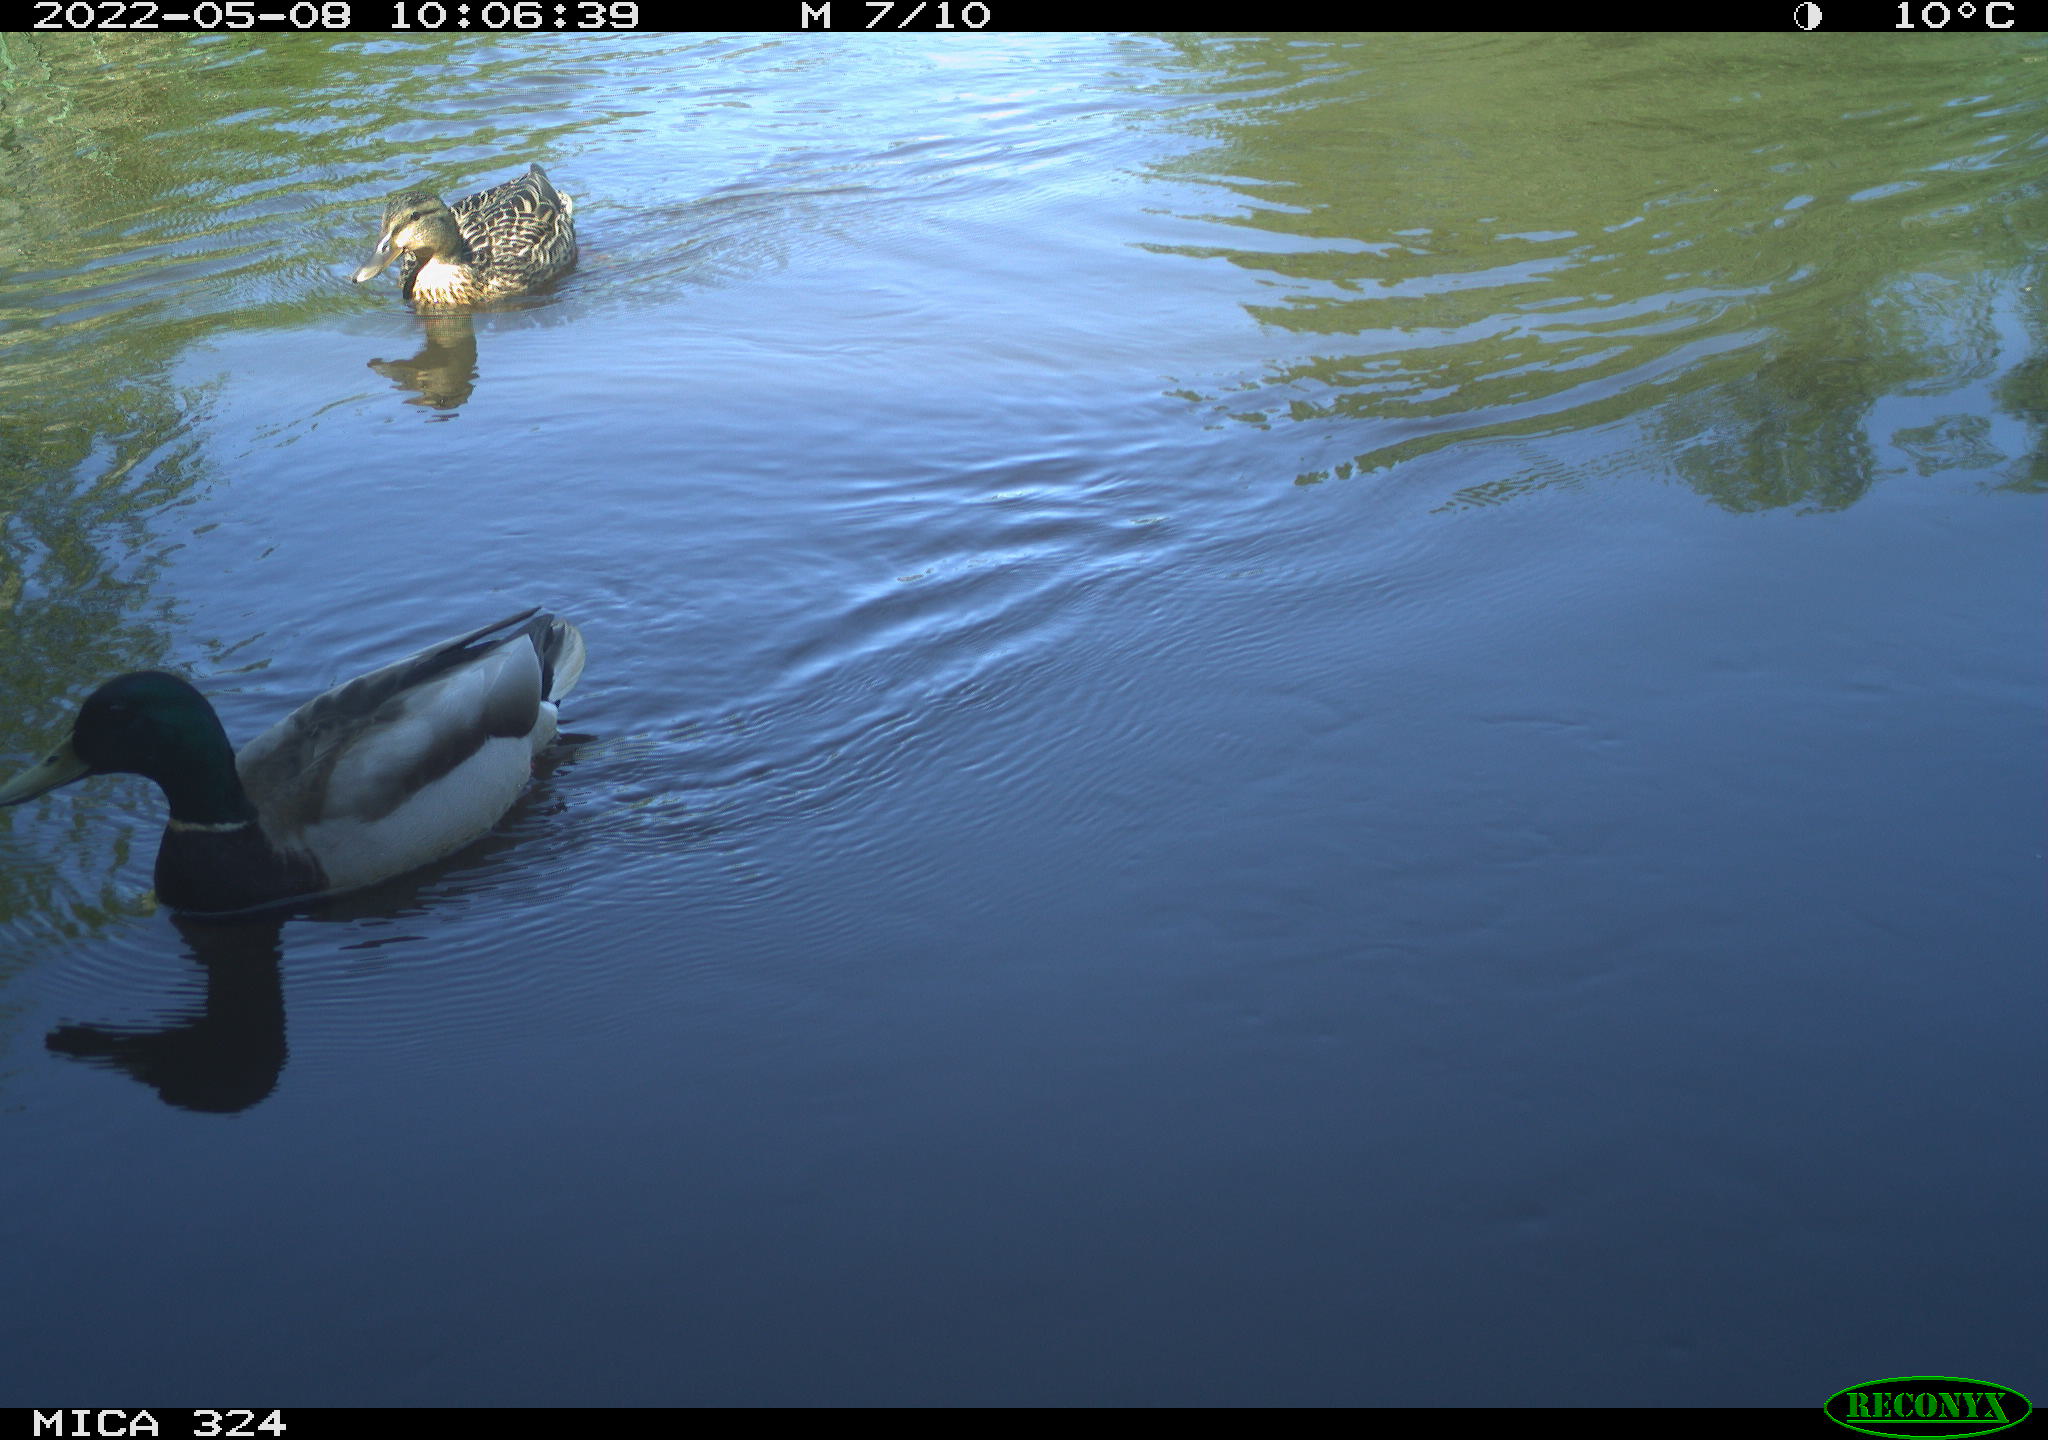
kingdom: Animalia
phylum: Chordata
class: Aves
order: Anseriformes
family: Anatidae
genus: Anas
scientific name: Anas platyrhynchos
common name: Mallard
